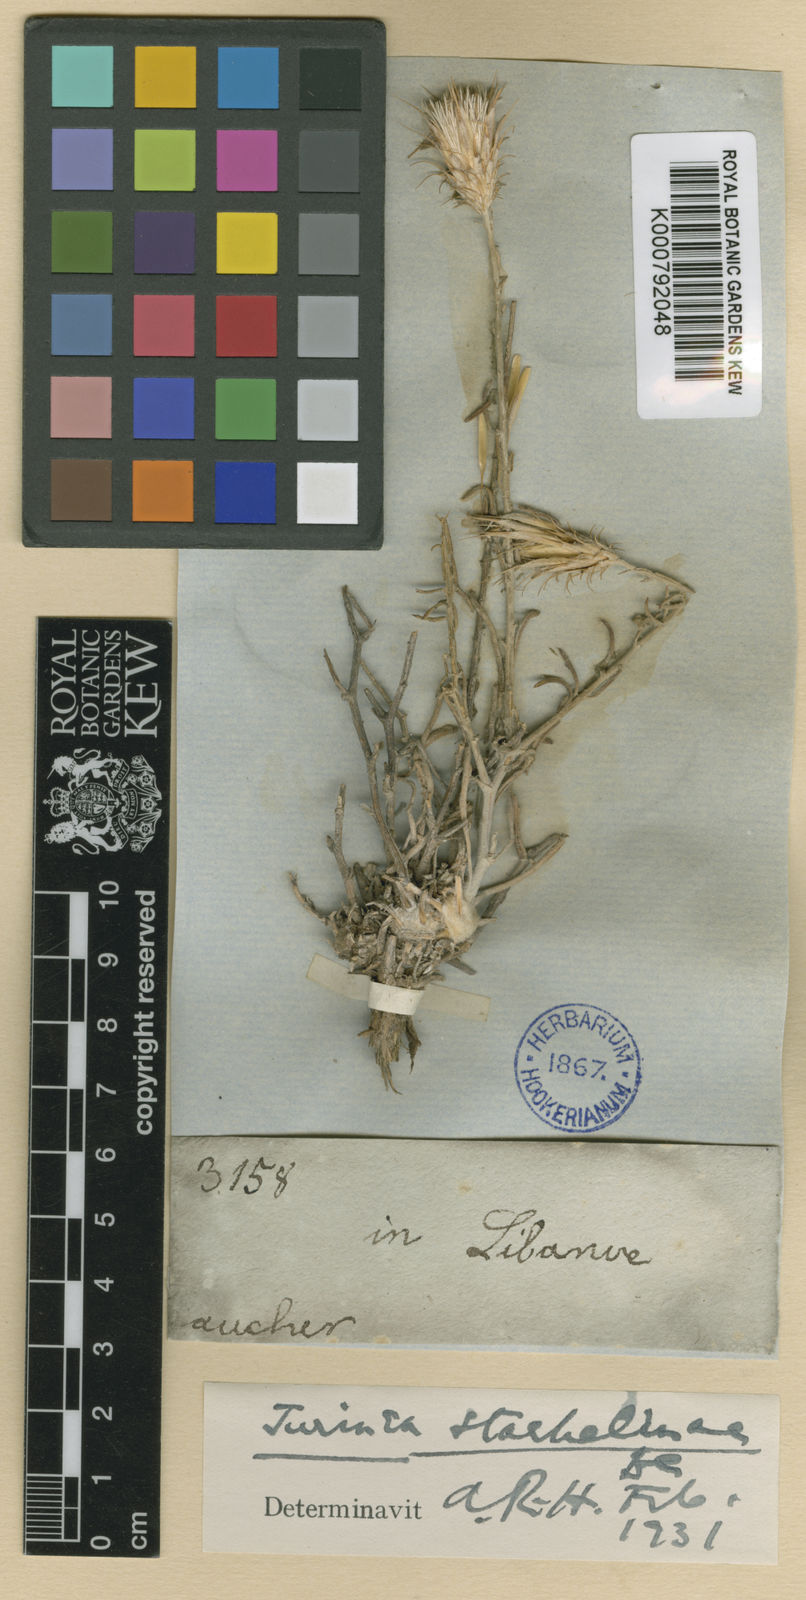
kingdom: Plantae
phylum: Tracheophyta
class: Magnoliopsida
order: Asterales
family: Asteraceae
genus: Jurinea
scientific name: Jurinea staehelinae
